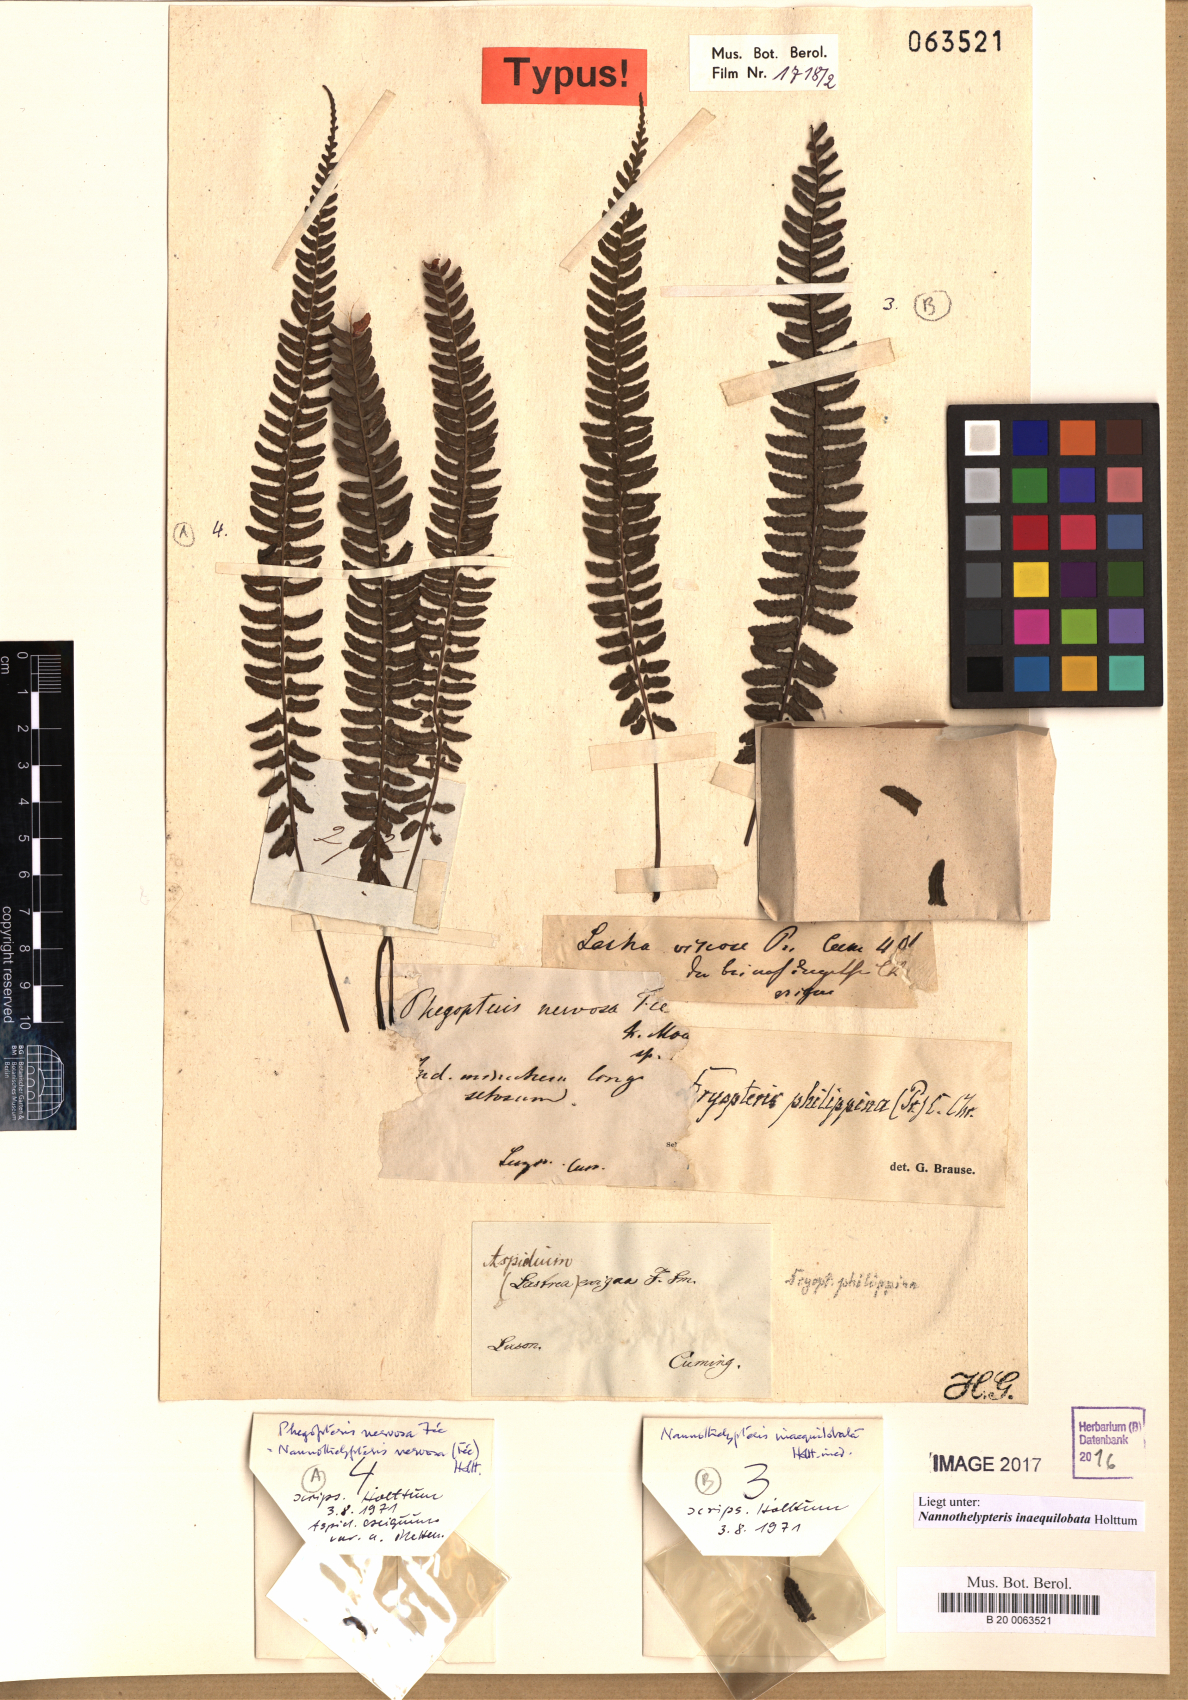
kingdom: Plantae
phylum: Tracheophyta
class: Polypodiopsida
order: Polypodiales
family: Thelypteridaceae
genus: Pronephrium
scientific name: Pronephrium inaequilobatum
